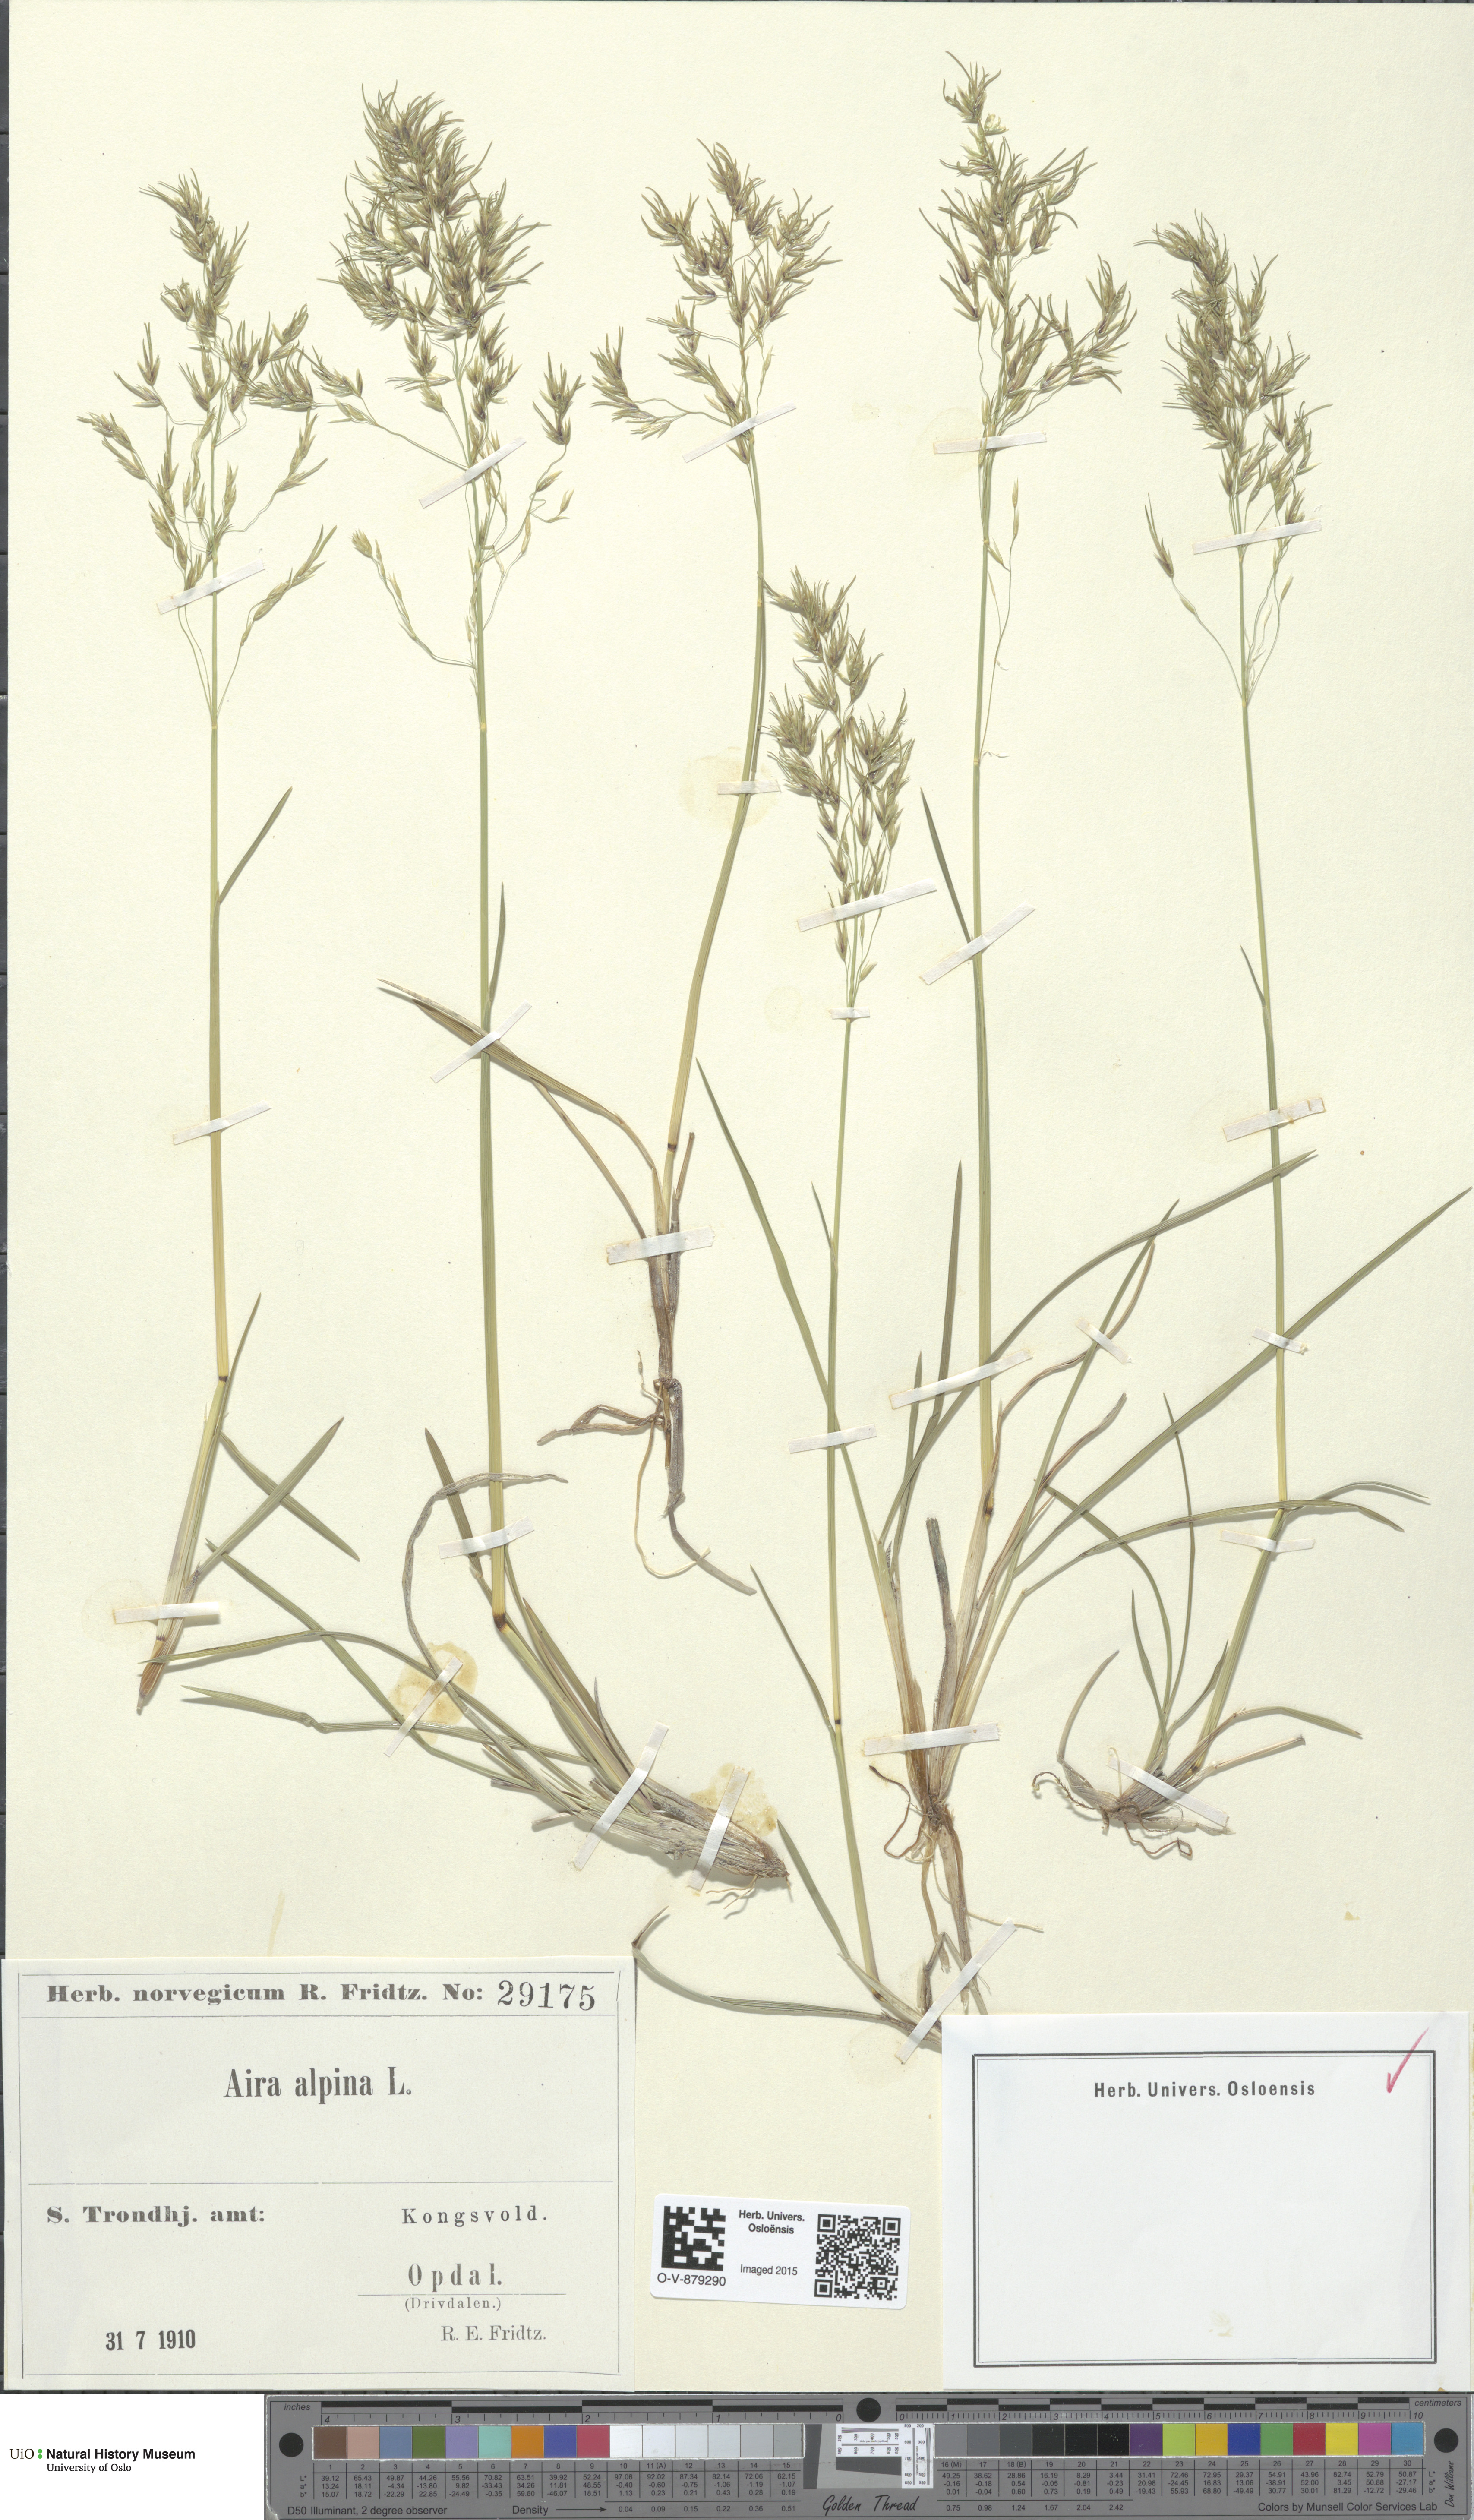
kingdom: Plantae
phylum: Tracheophyta
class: Liliopsida
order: Poales
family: Poaceae
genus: Deschampsia
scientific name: Deschampsia cespitosa
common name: Tufted hair-grass
